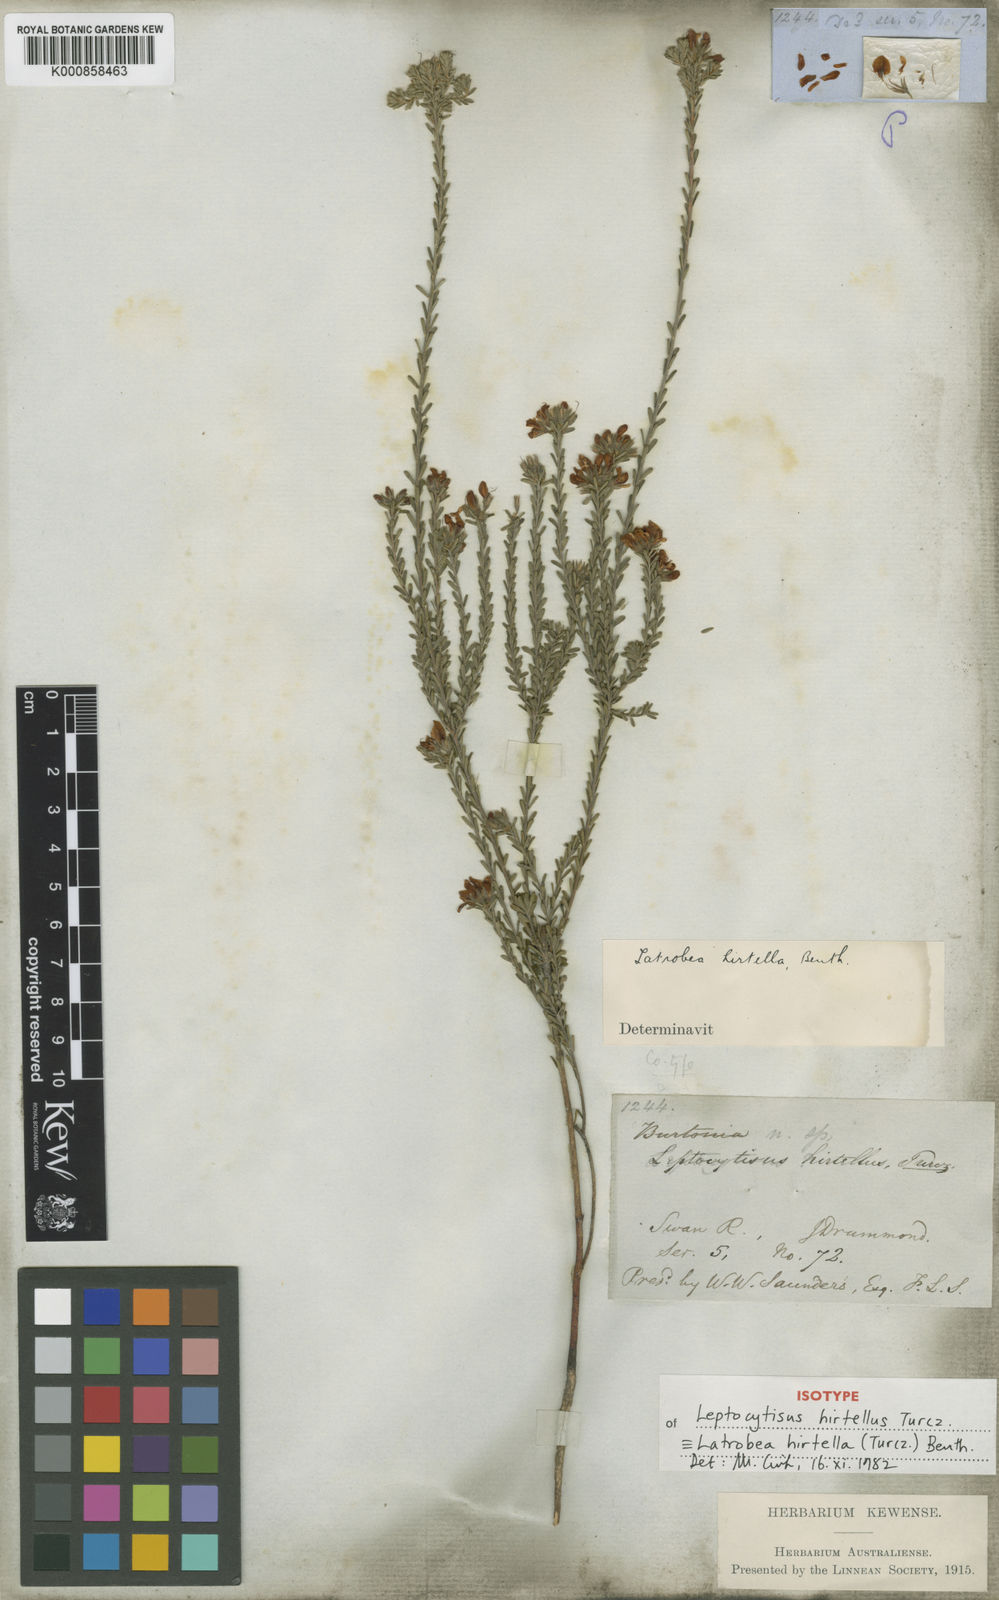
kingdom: Plantae
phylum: Tracheophyta
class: Magnoliopsida
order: Fabales
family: Fabaceae
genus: Latrobea
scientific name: Latrobea hirtella
